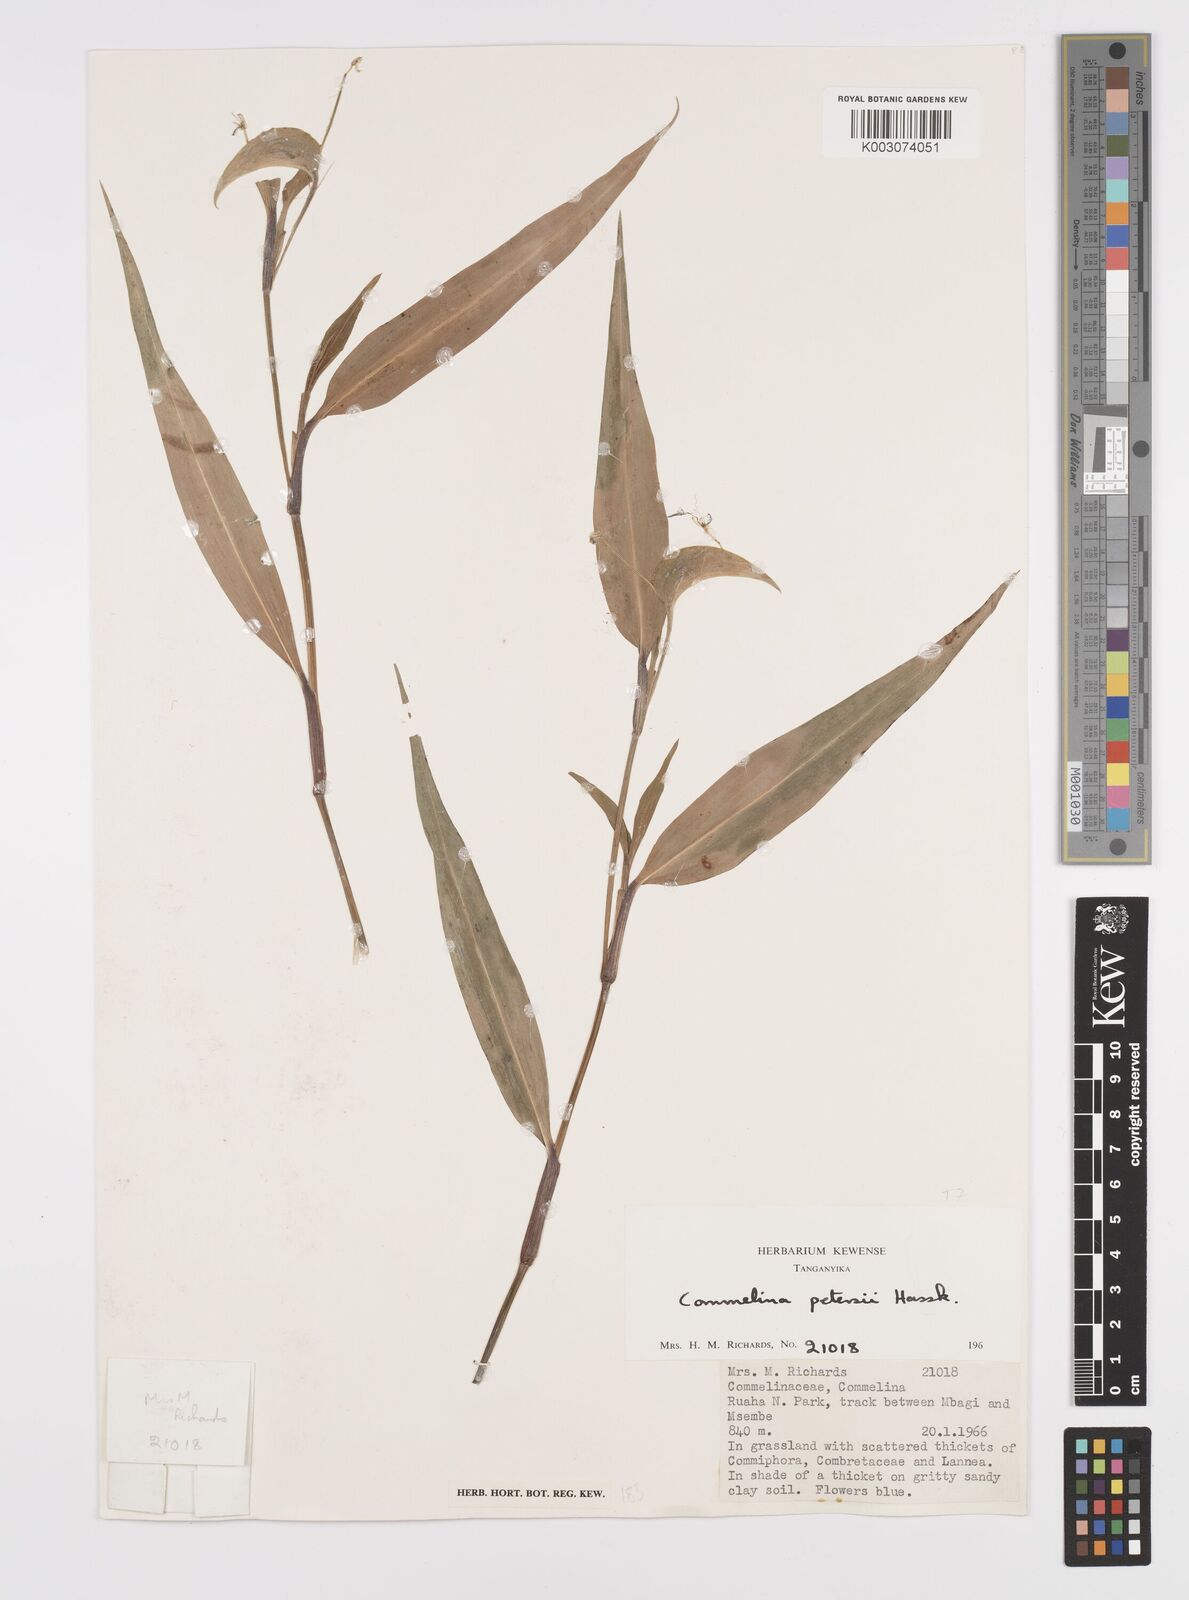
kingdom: Plantae
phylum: Tracheophyta
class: Liliopsida
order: Commelinales
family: Commelinaceae
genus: Commelina
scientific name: Commelina petersii
